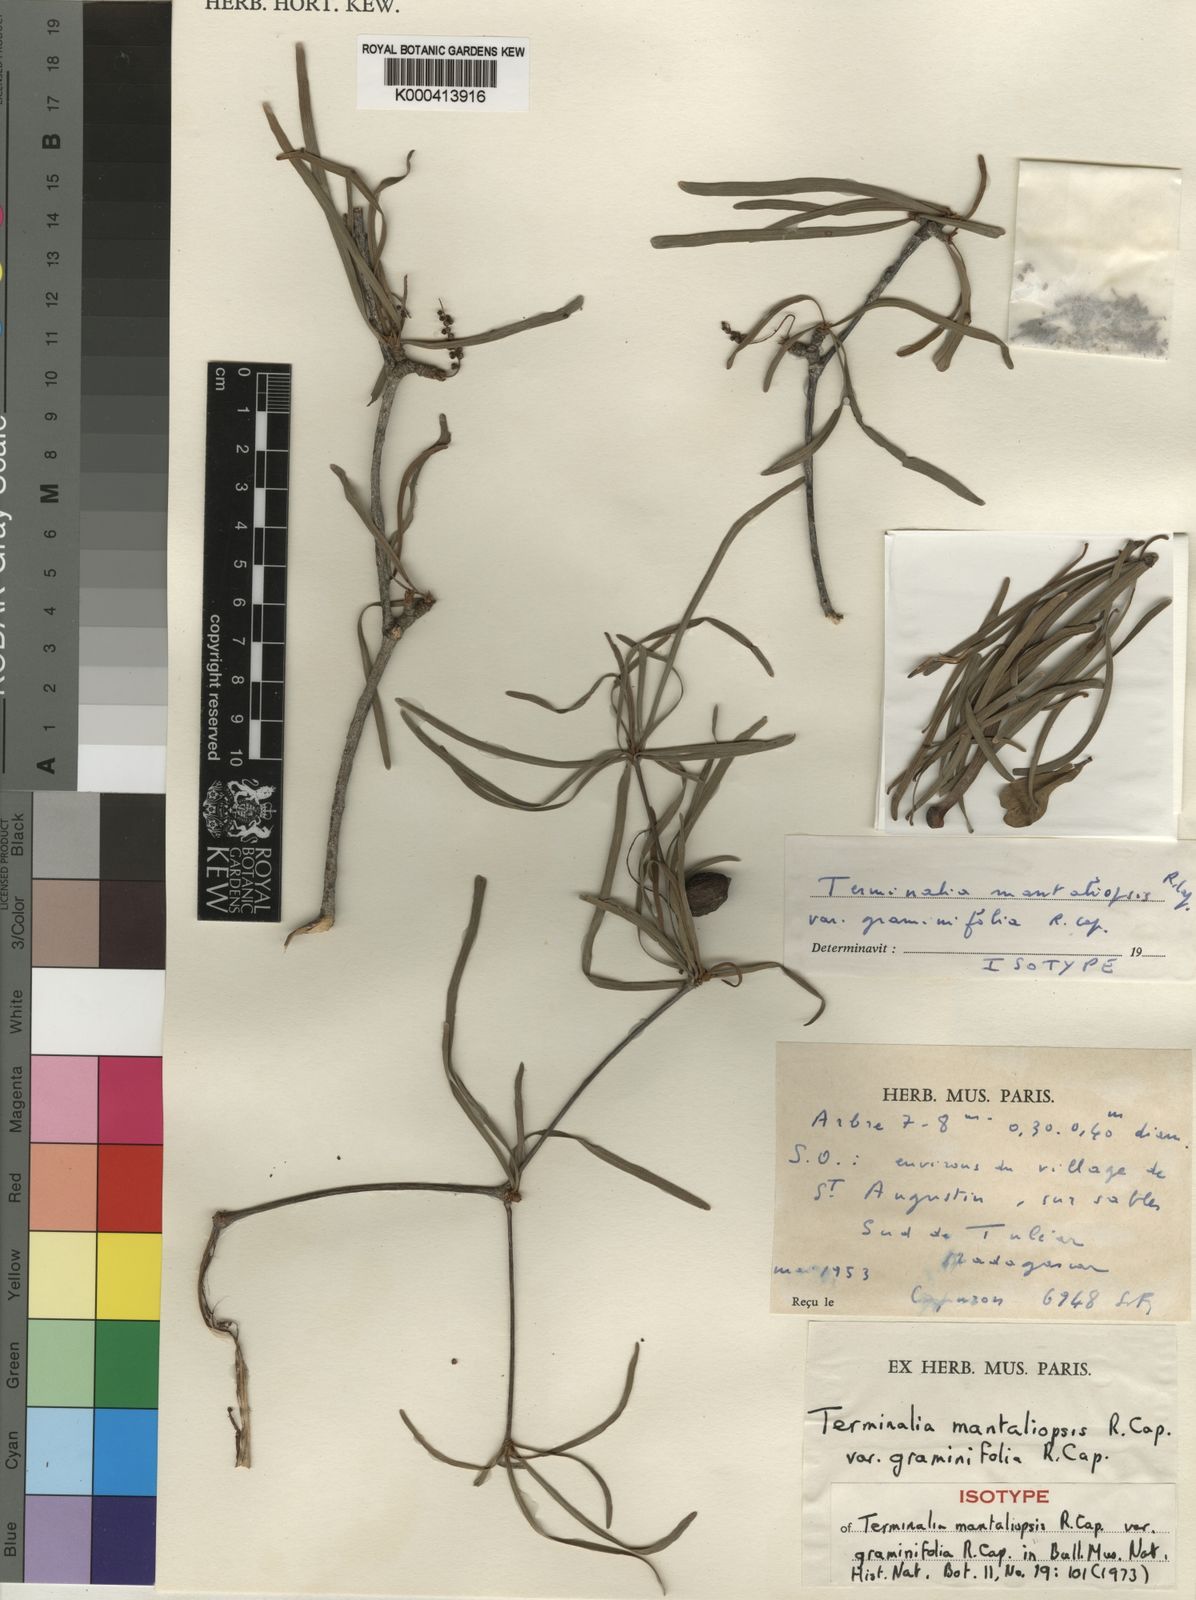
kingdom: Plantae
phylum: Tracheophyta
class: Magnoliopsida
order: Myrtales
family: Combretaceae
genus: Terminalia
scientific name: Terminalia mantaliopsis
